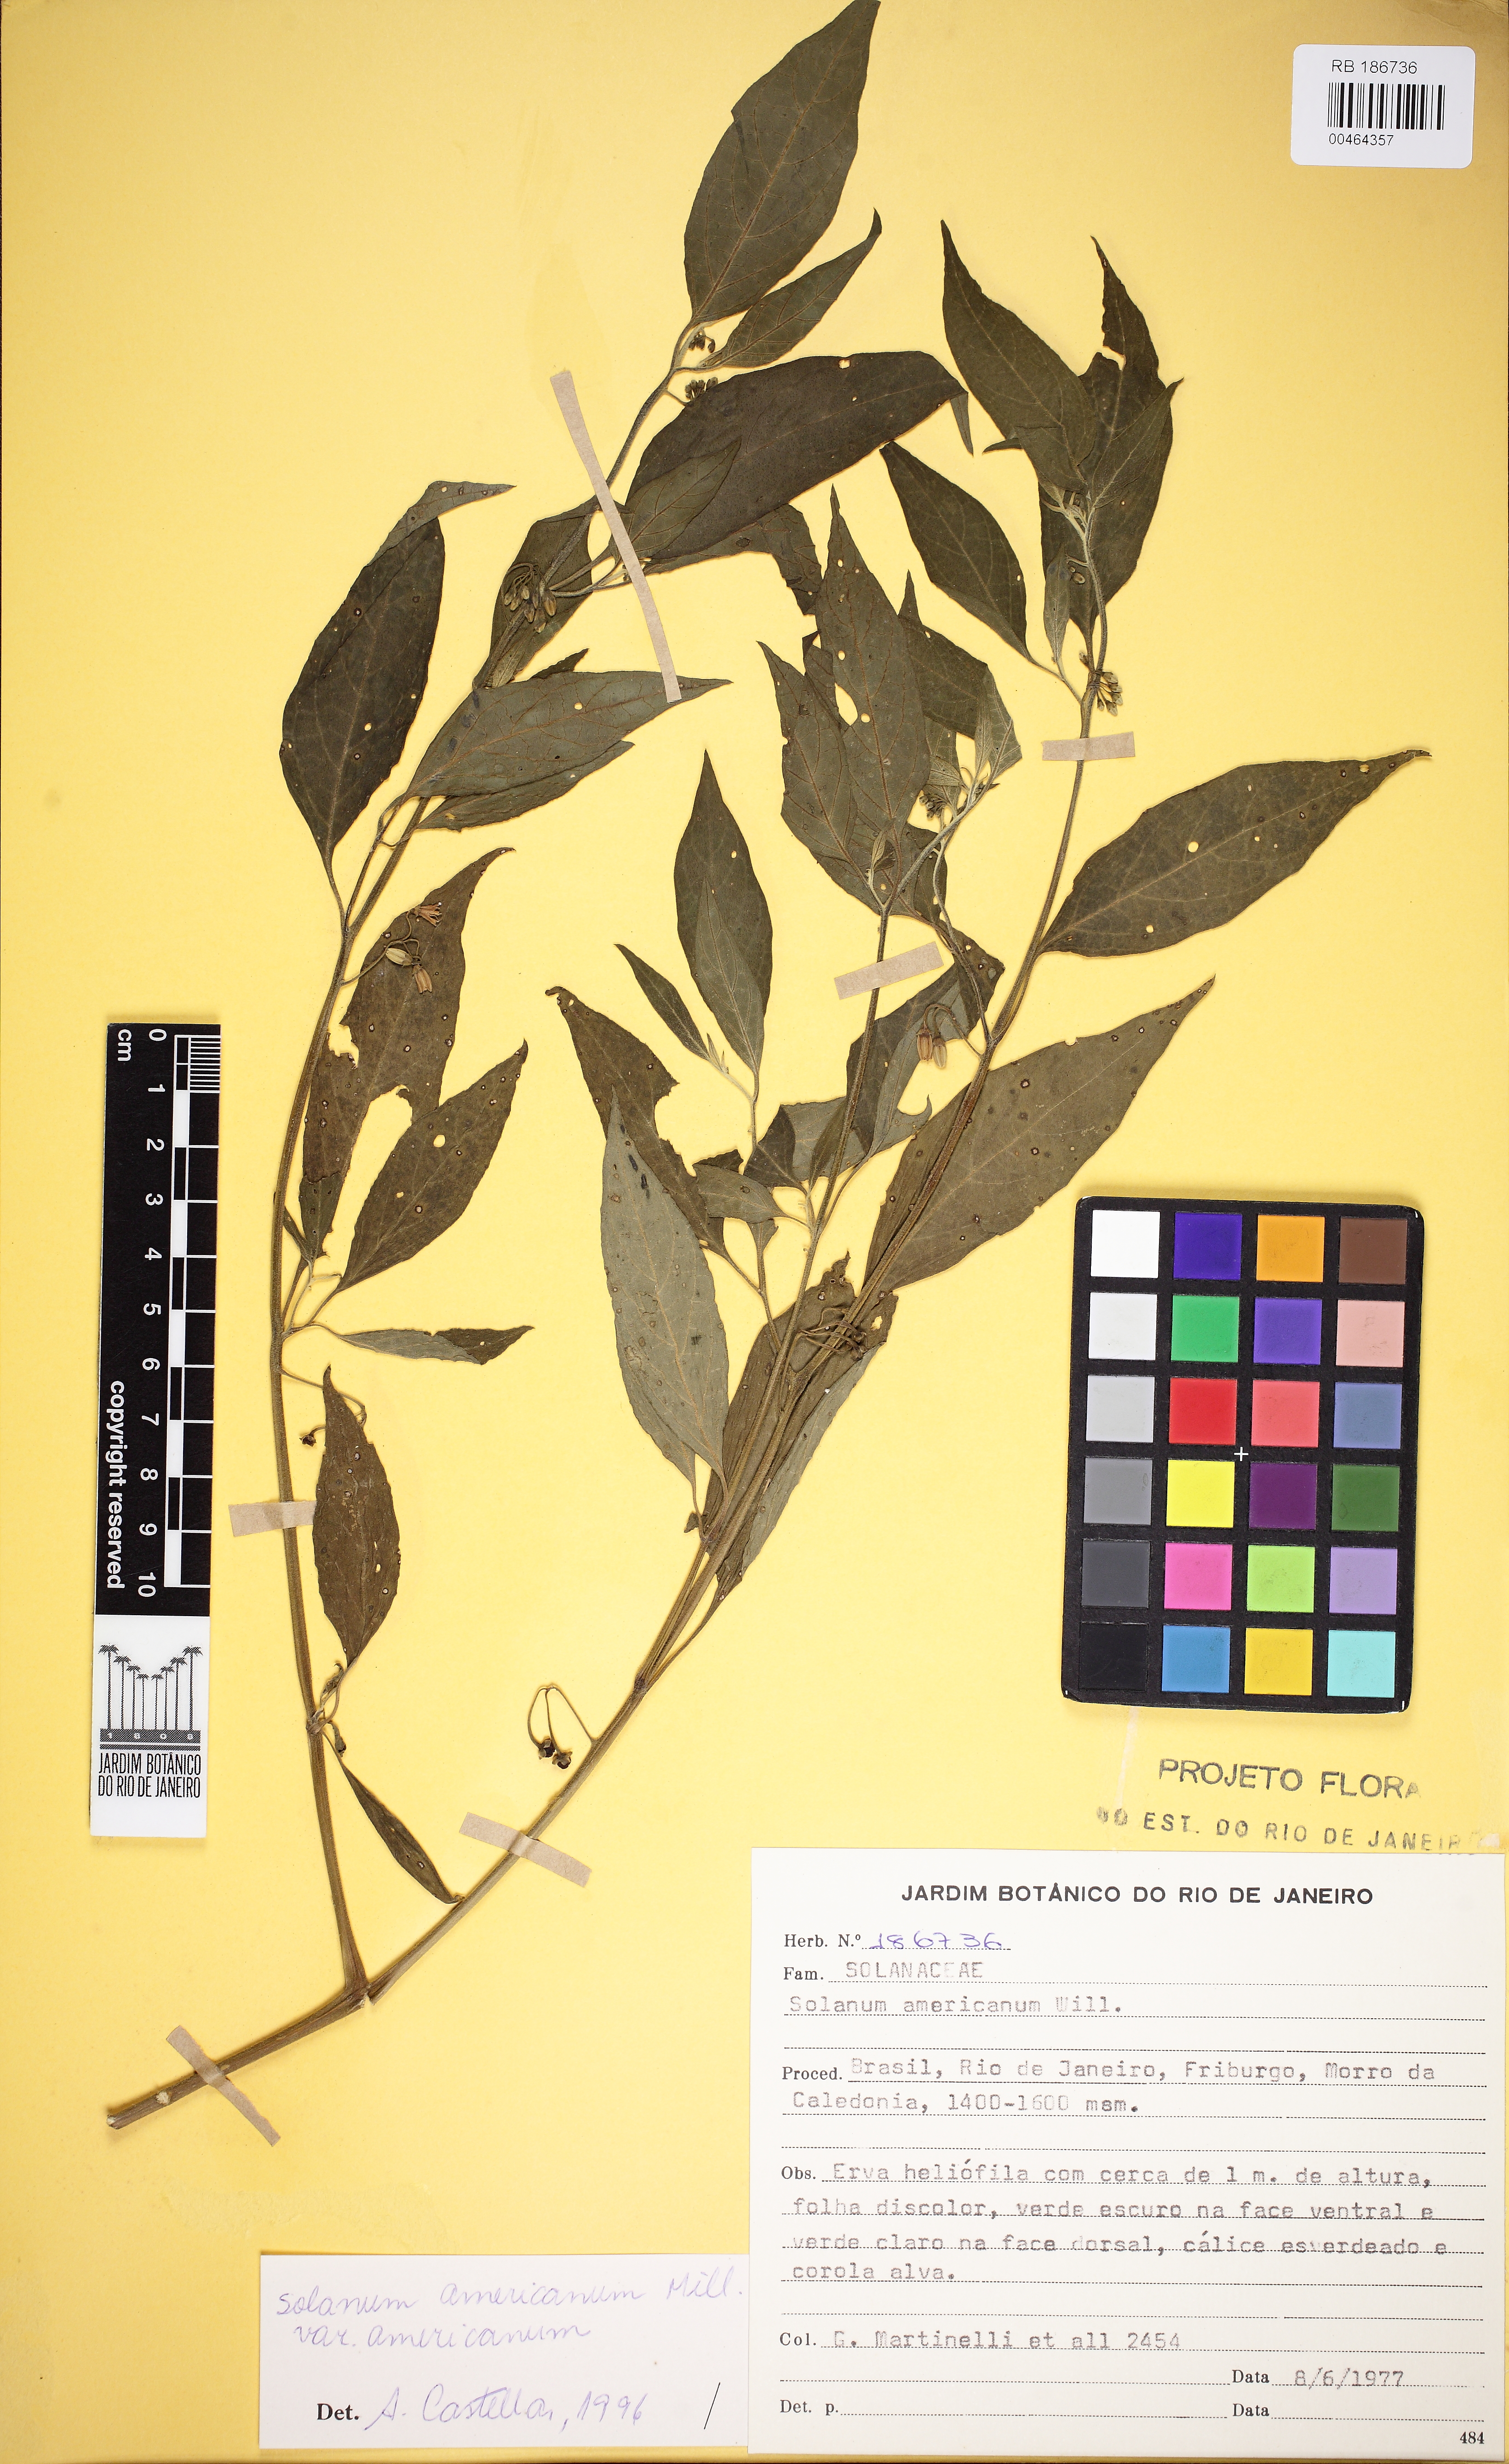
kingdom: Plantae
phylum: Tracheophyta
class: Magnoliopsida
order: Solanales
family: Solanaceae
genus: Solanum
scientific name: Solanum enantiophyllanthum
